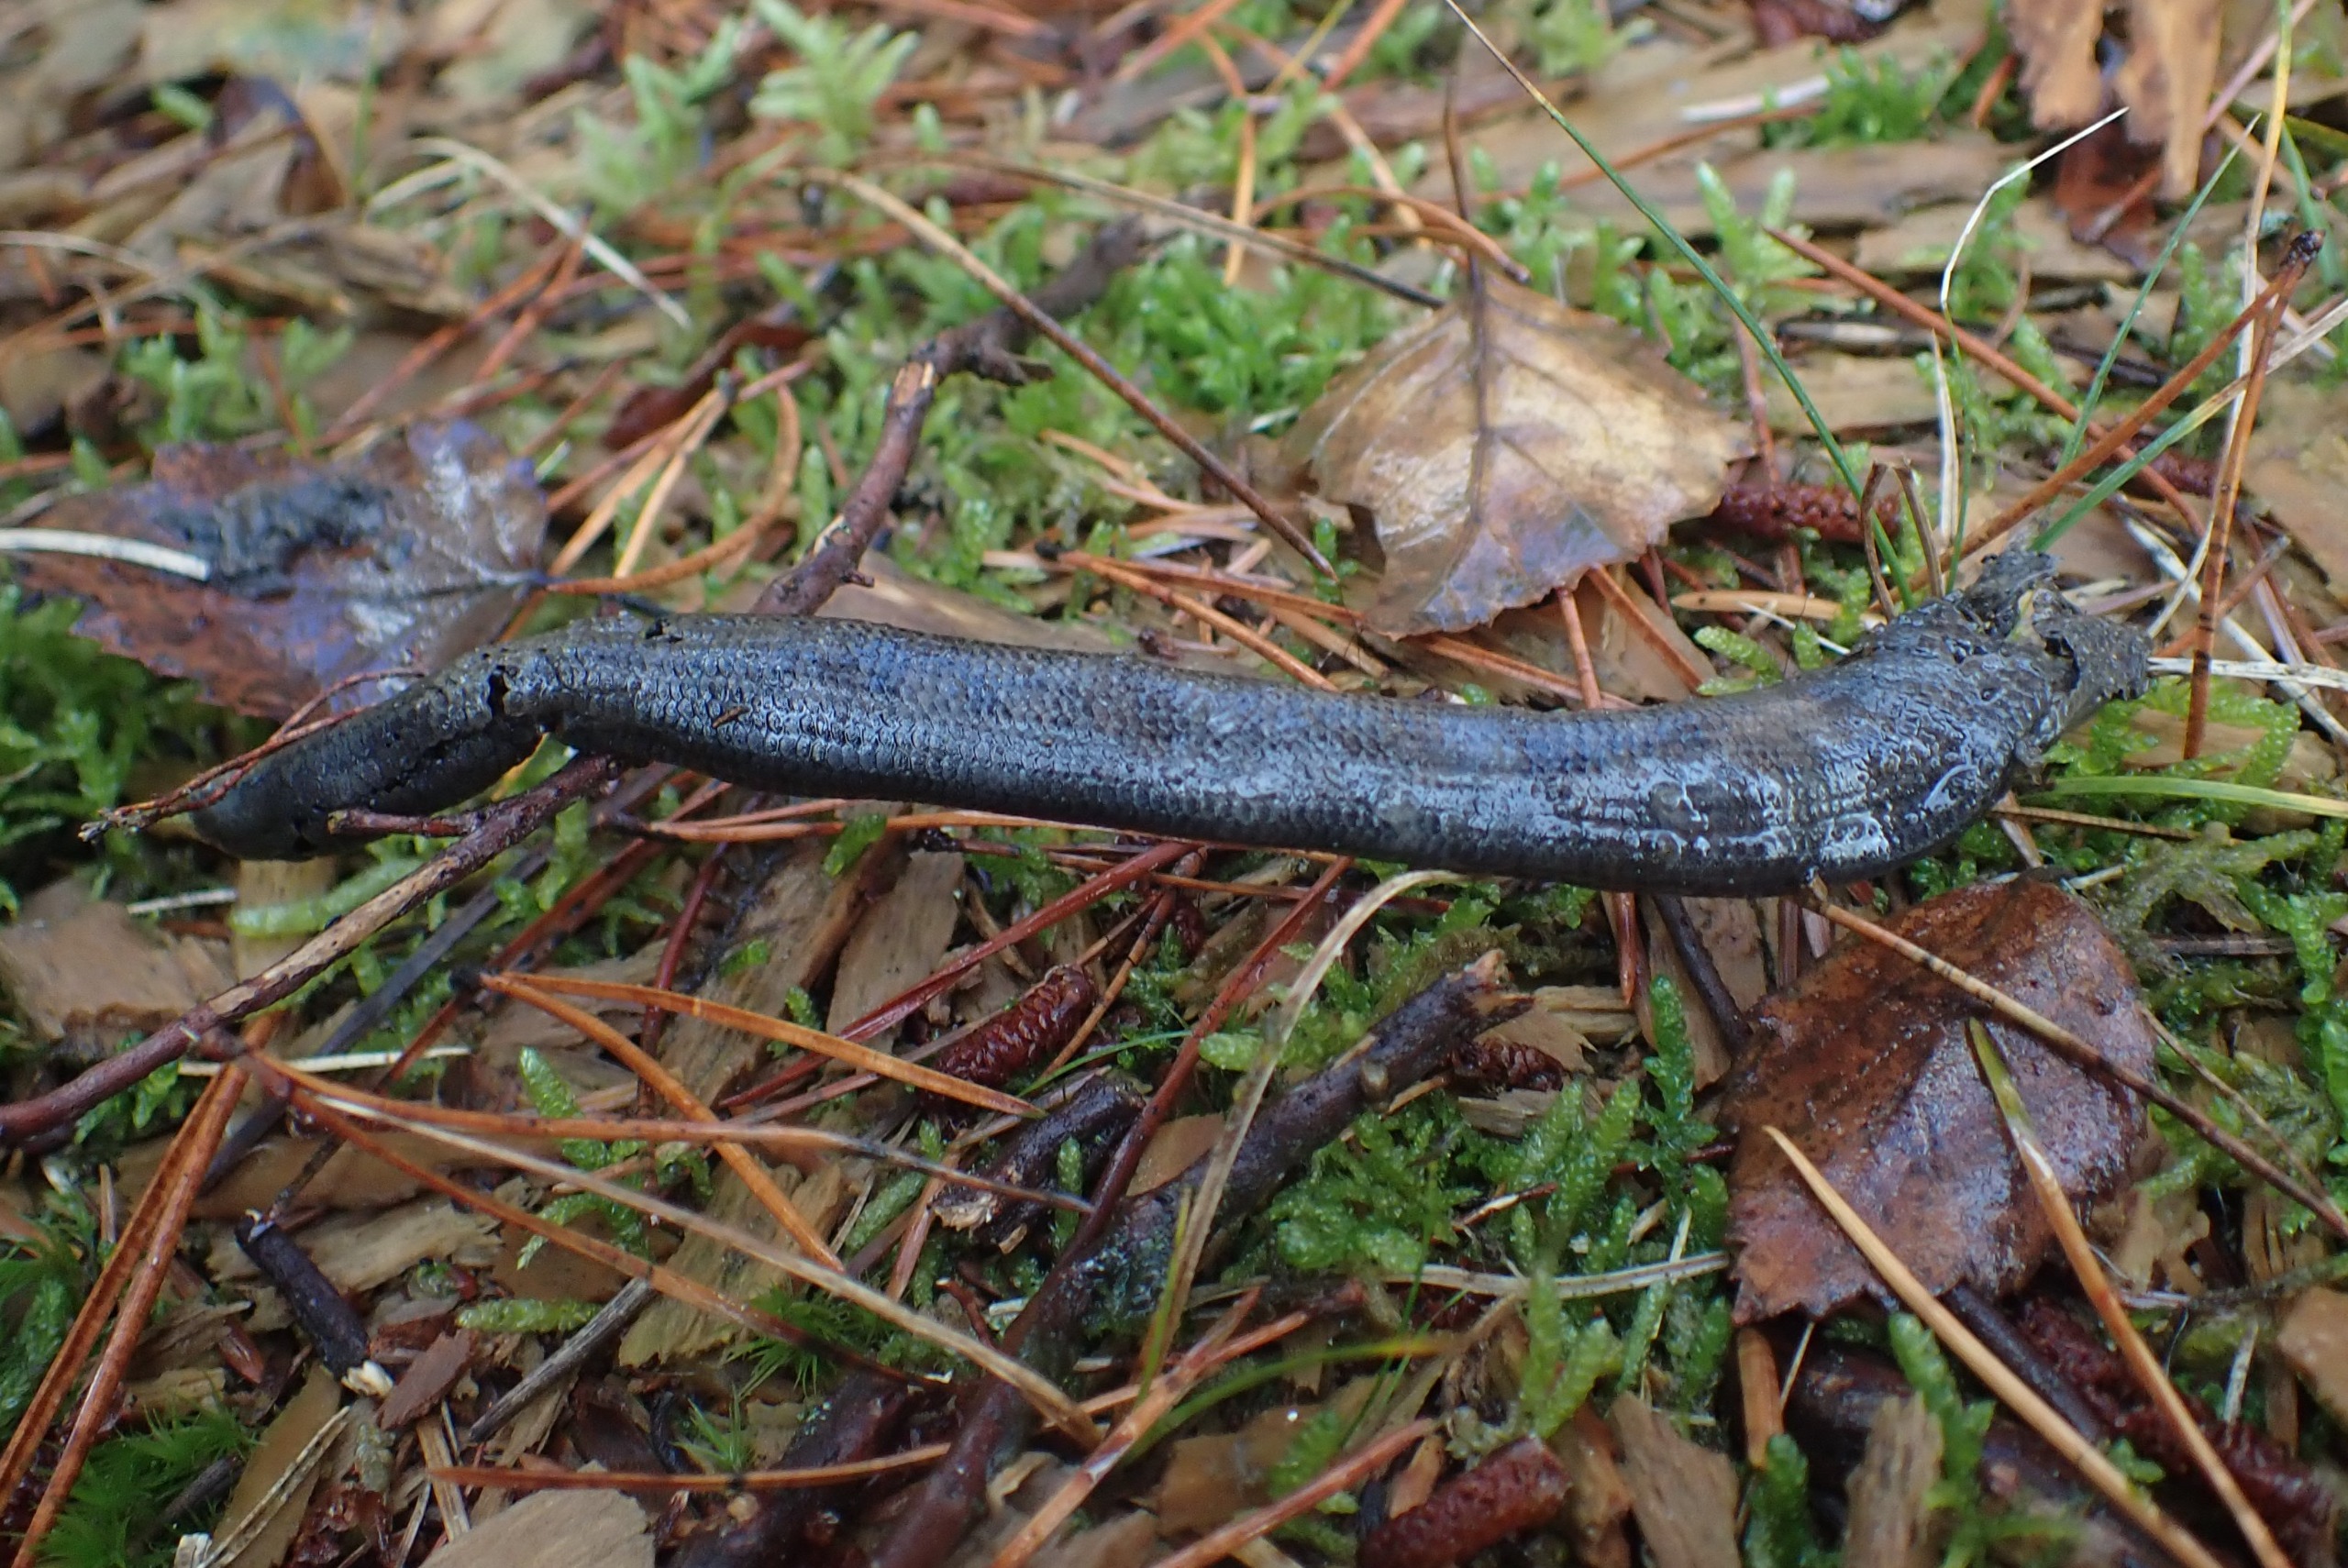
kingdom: Animalia
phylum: Chordata
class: Squamata
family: Anguidae
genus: Anguis
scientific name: Anguis fragilis
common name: Stålorm
